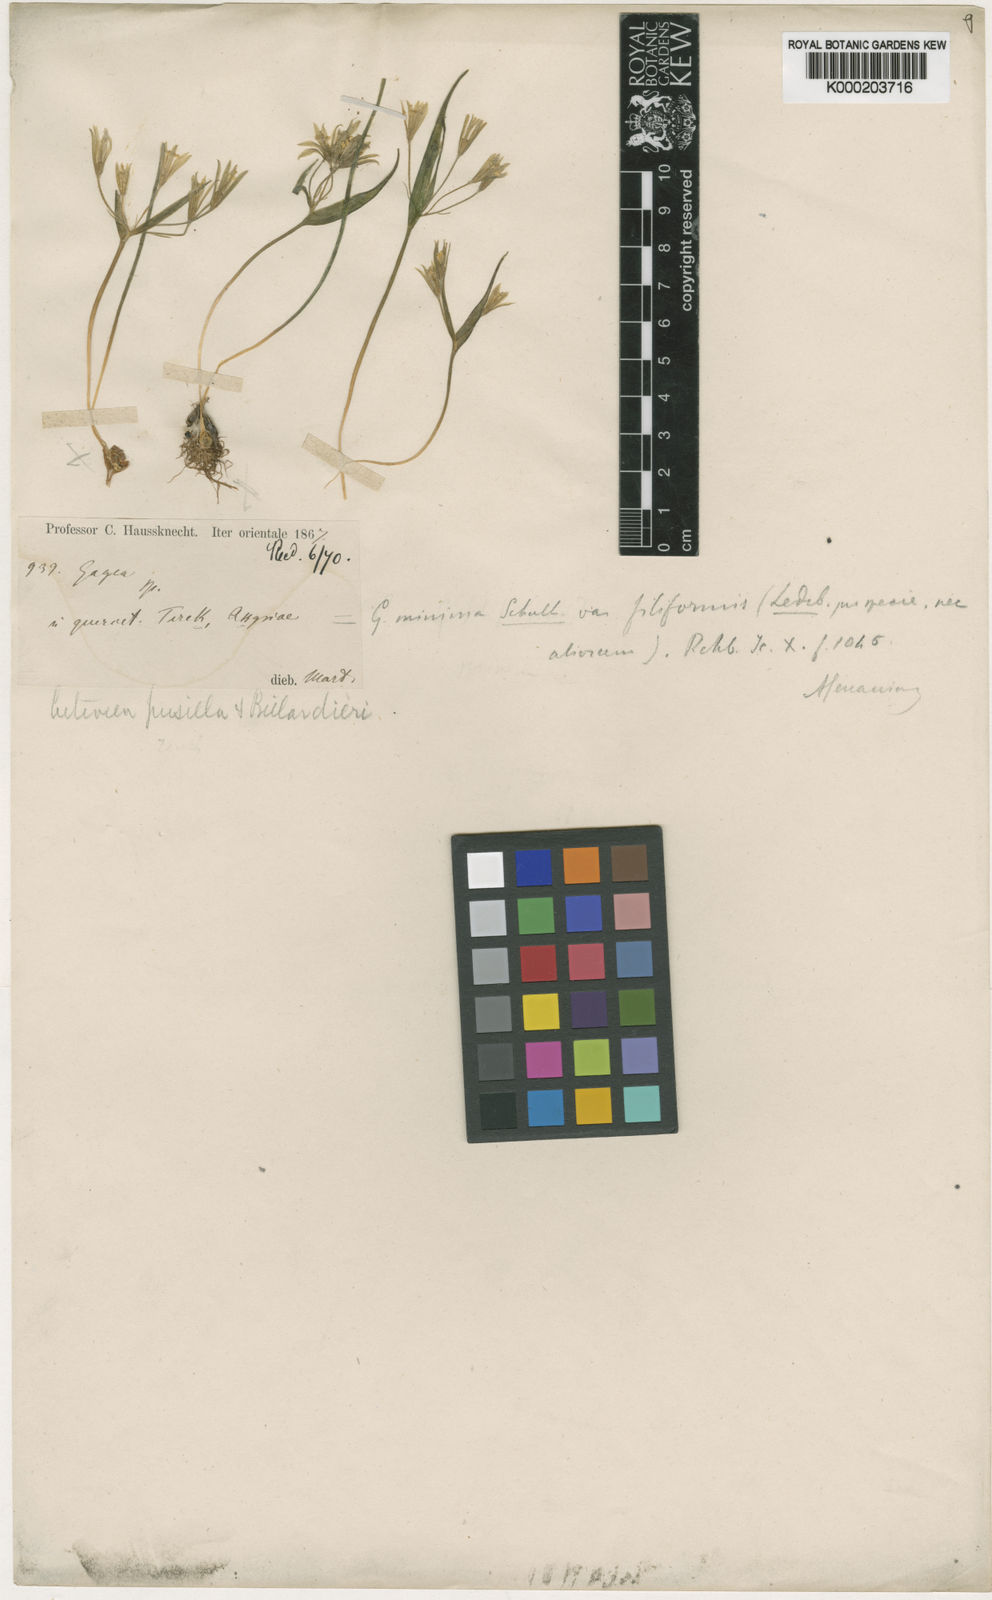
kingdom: Plantae
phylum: Tracheophyta
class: Liliopsida
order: Liliales
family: Liliaceae
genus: Gagea
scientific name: Gagea luteoides
